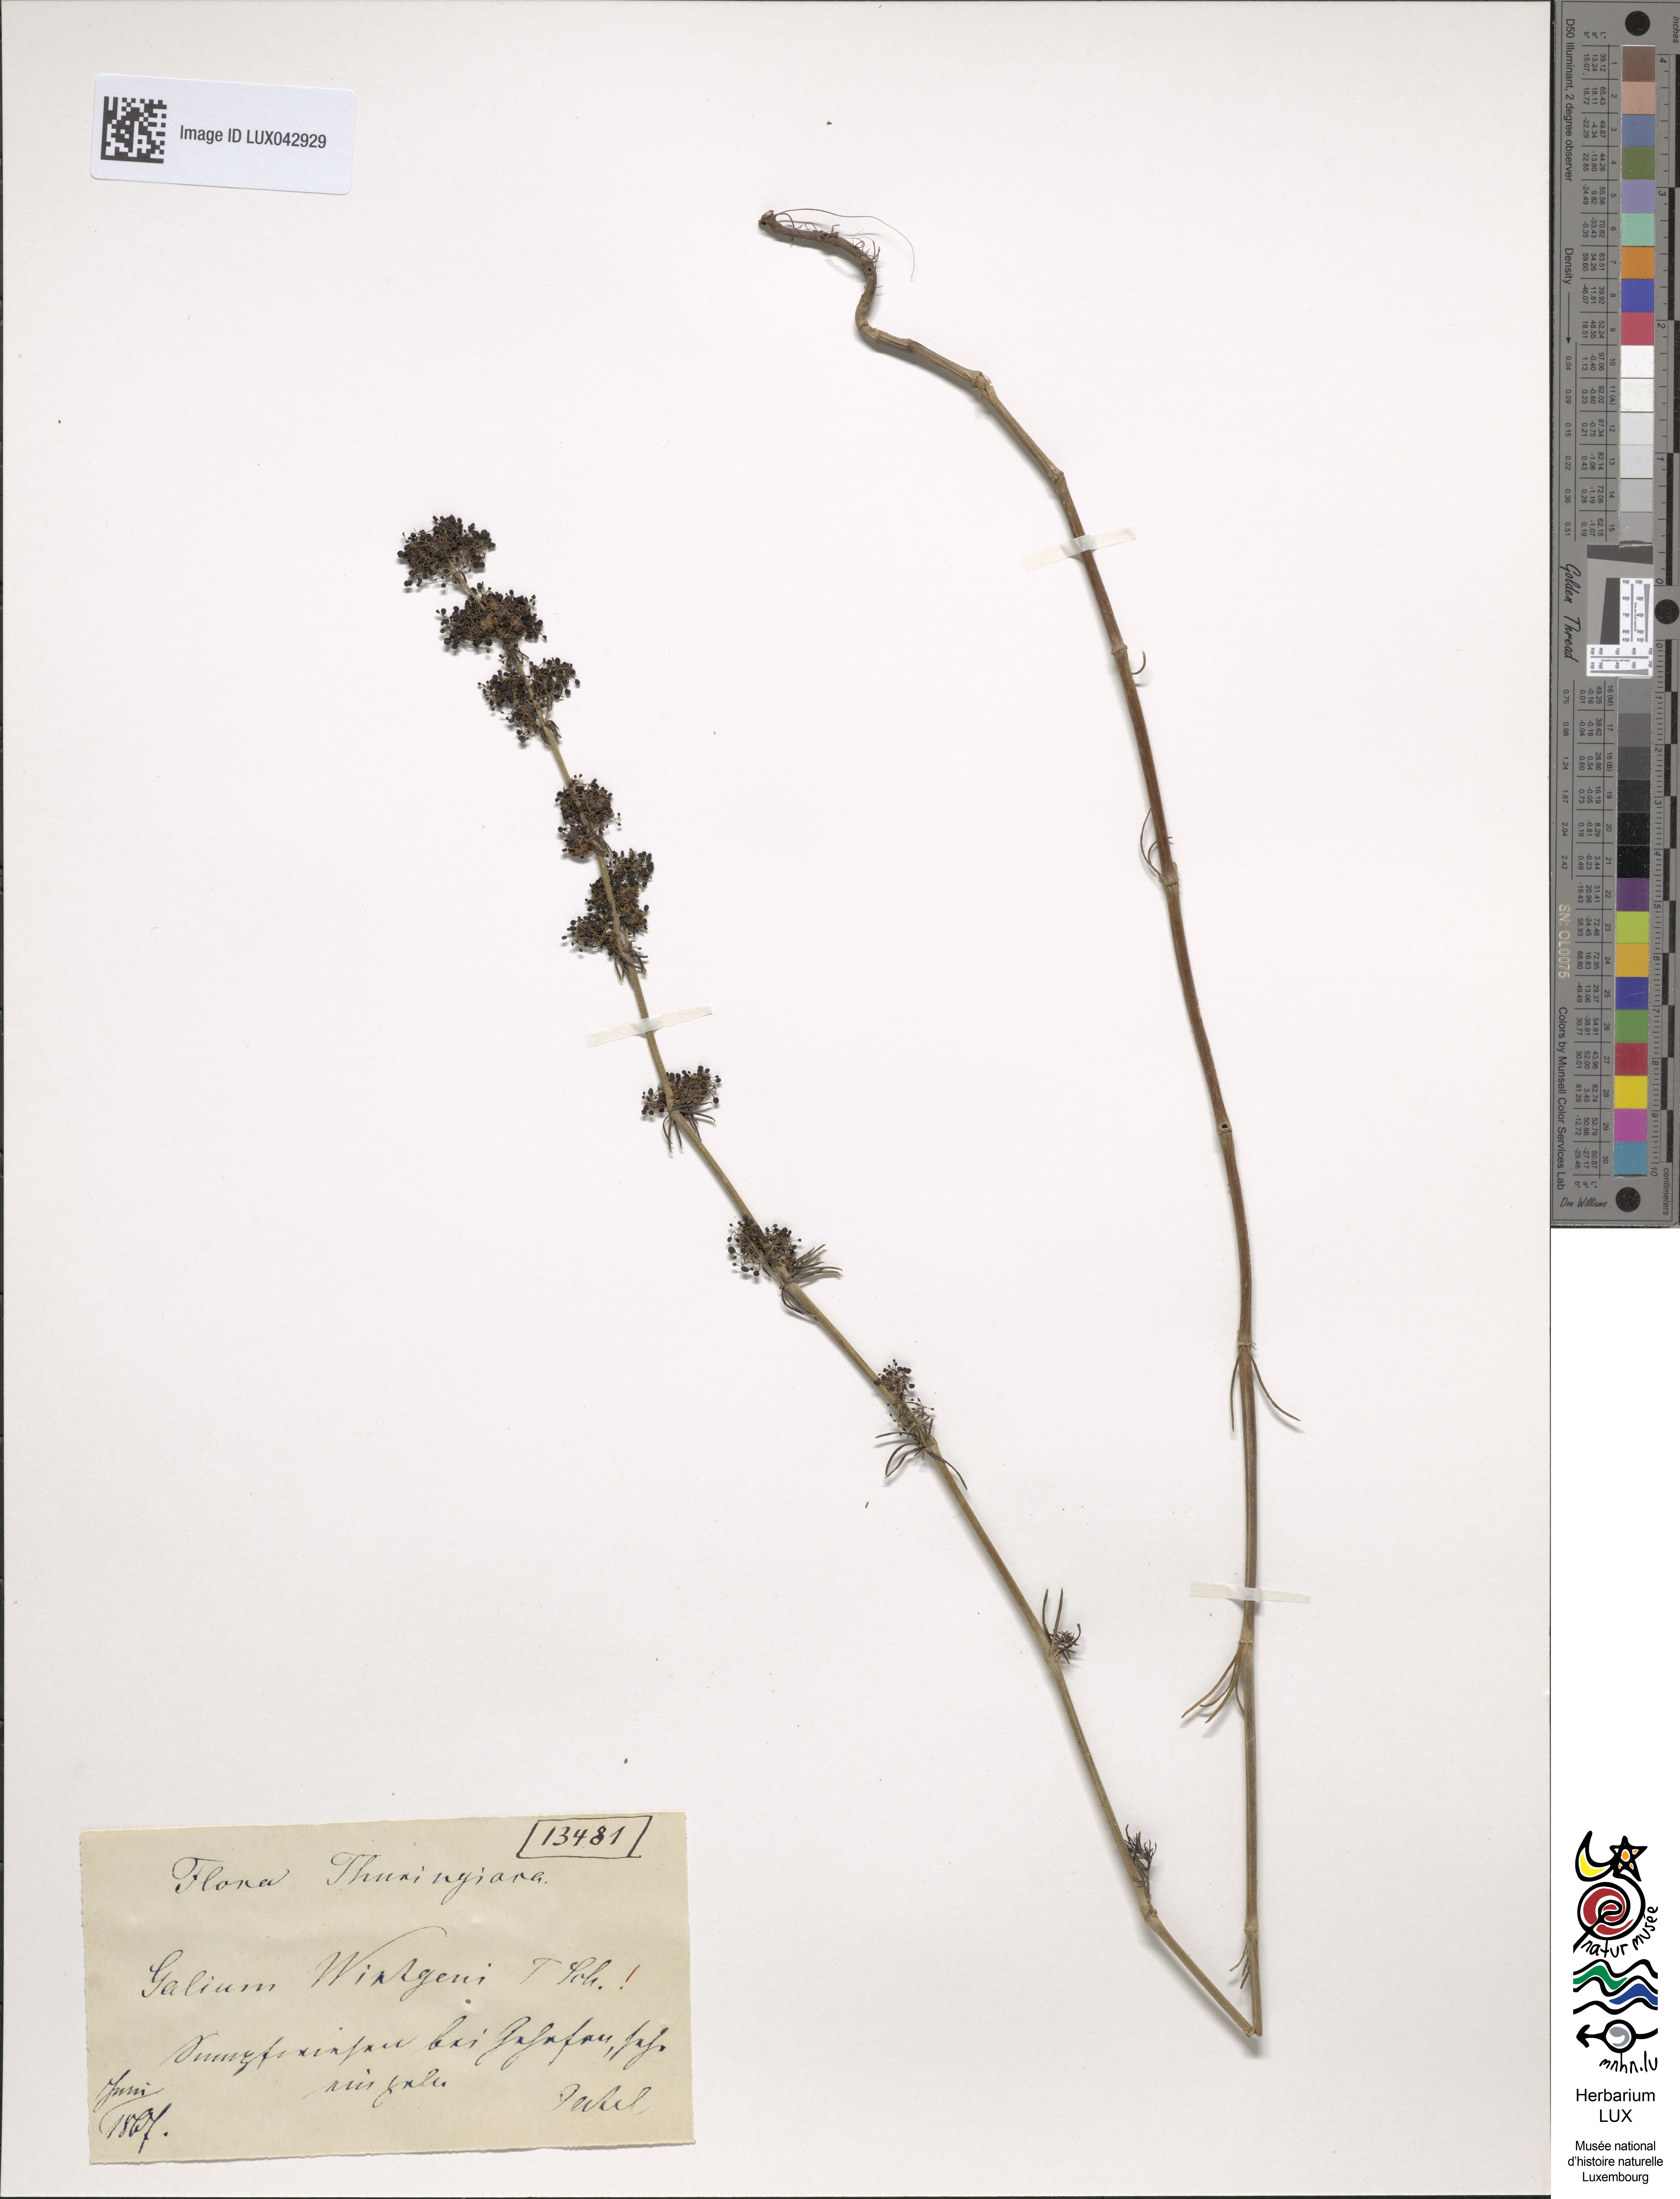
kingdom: Plantae
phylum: Tracheophyta
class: Magnoliopsida
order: Gentianales
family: Rubiaceae
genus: Galium
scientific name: Galium verum
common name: Lady's bedstraw
